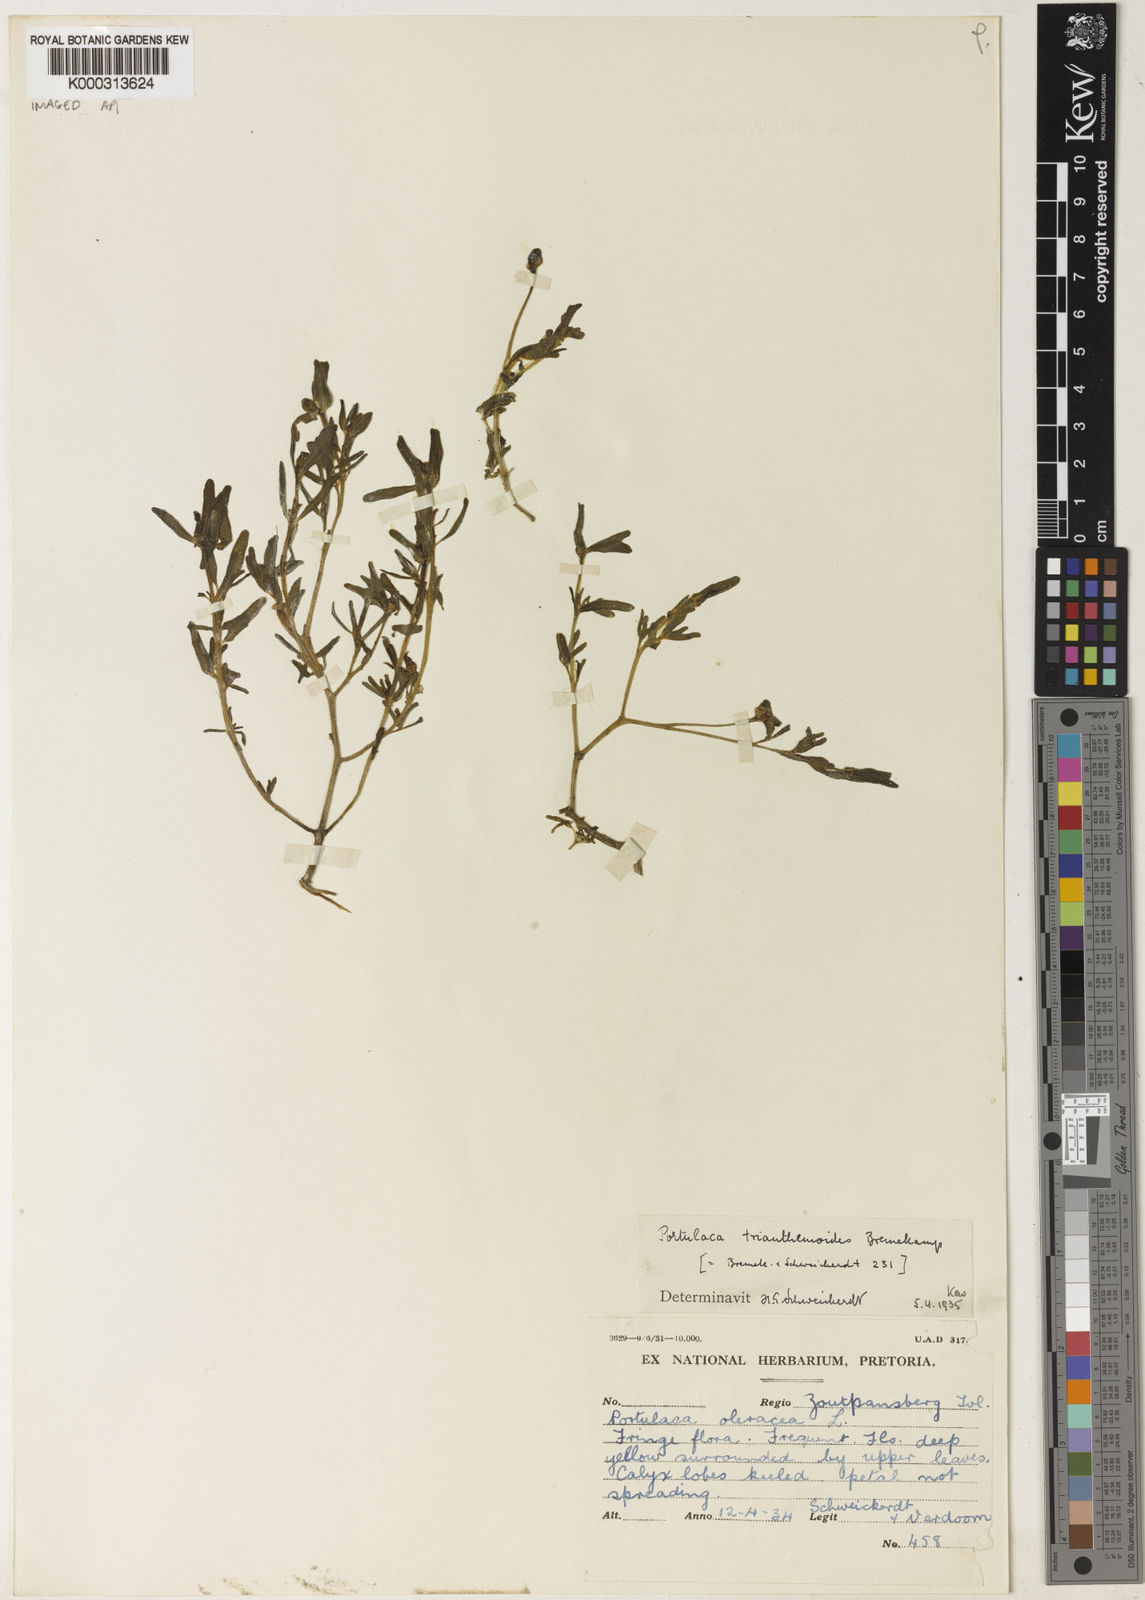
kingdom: Plantae
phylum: Tracheophyta
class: Magnoliopsida
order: Caryophyllales
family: Portulacaceae
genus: Portulaca
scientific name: Portulaca oleracea
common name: Common purslane
